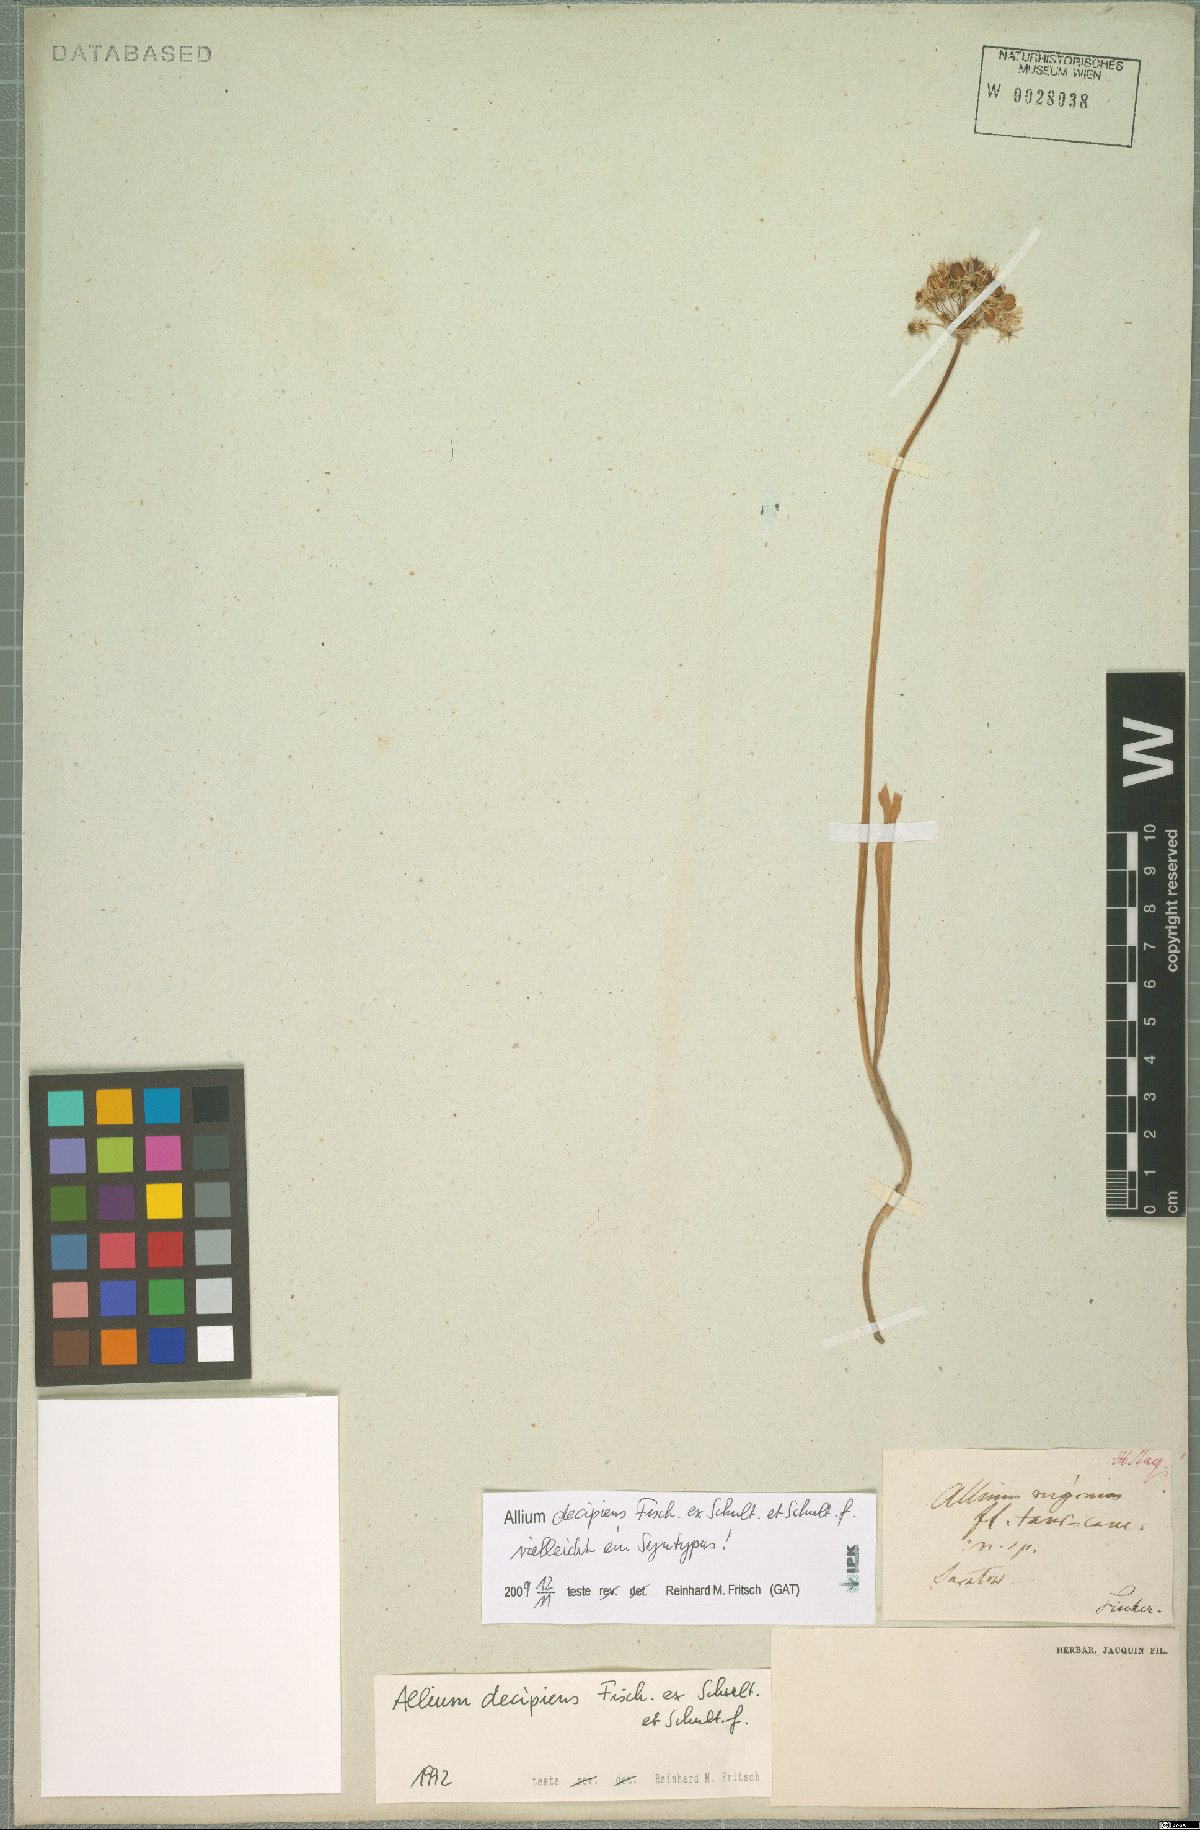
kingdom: Plantae
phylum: Tracheophyta
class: Liliopsida
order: Asparagales
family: Amaryllidaceae
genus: Allium
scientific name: Allium decipiens
